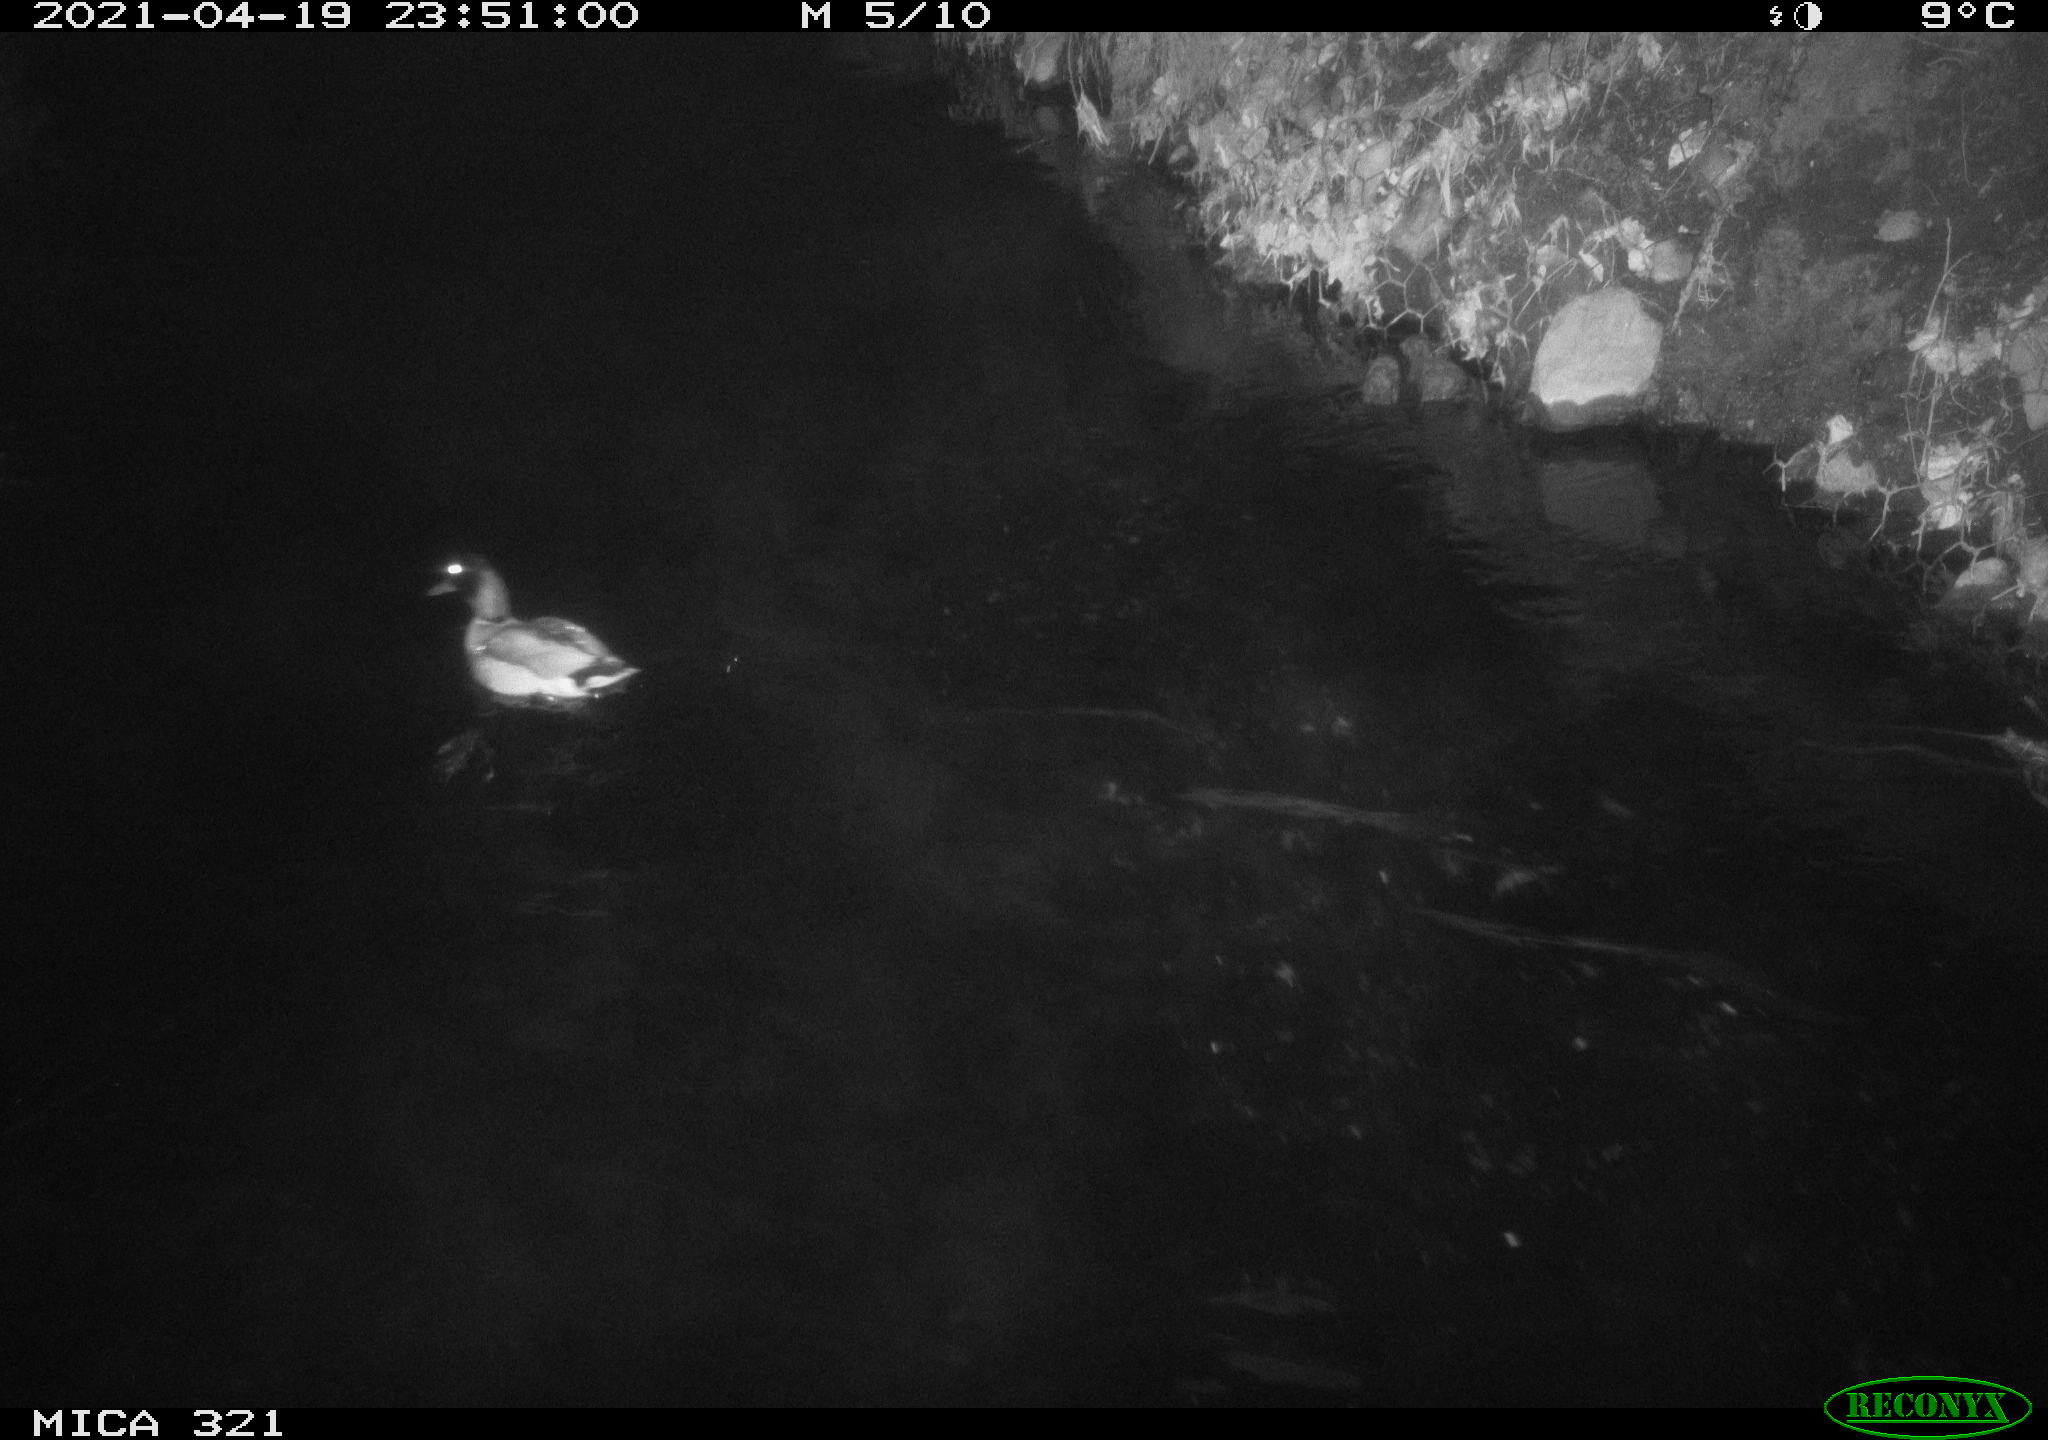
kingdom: Animalia
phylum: Chordata
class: Aves
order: Anseriformes
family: Anatidae
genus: Anas
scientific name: Anas
